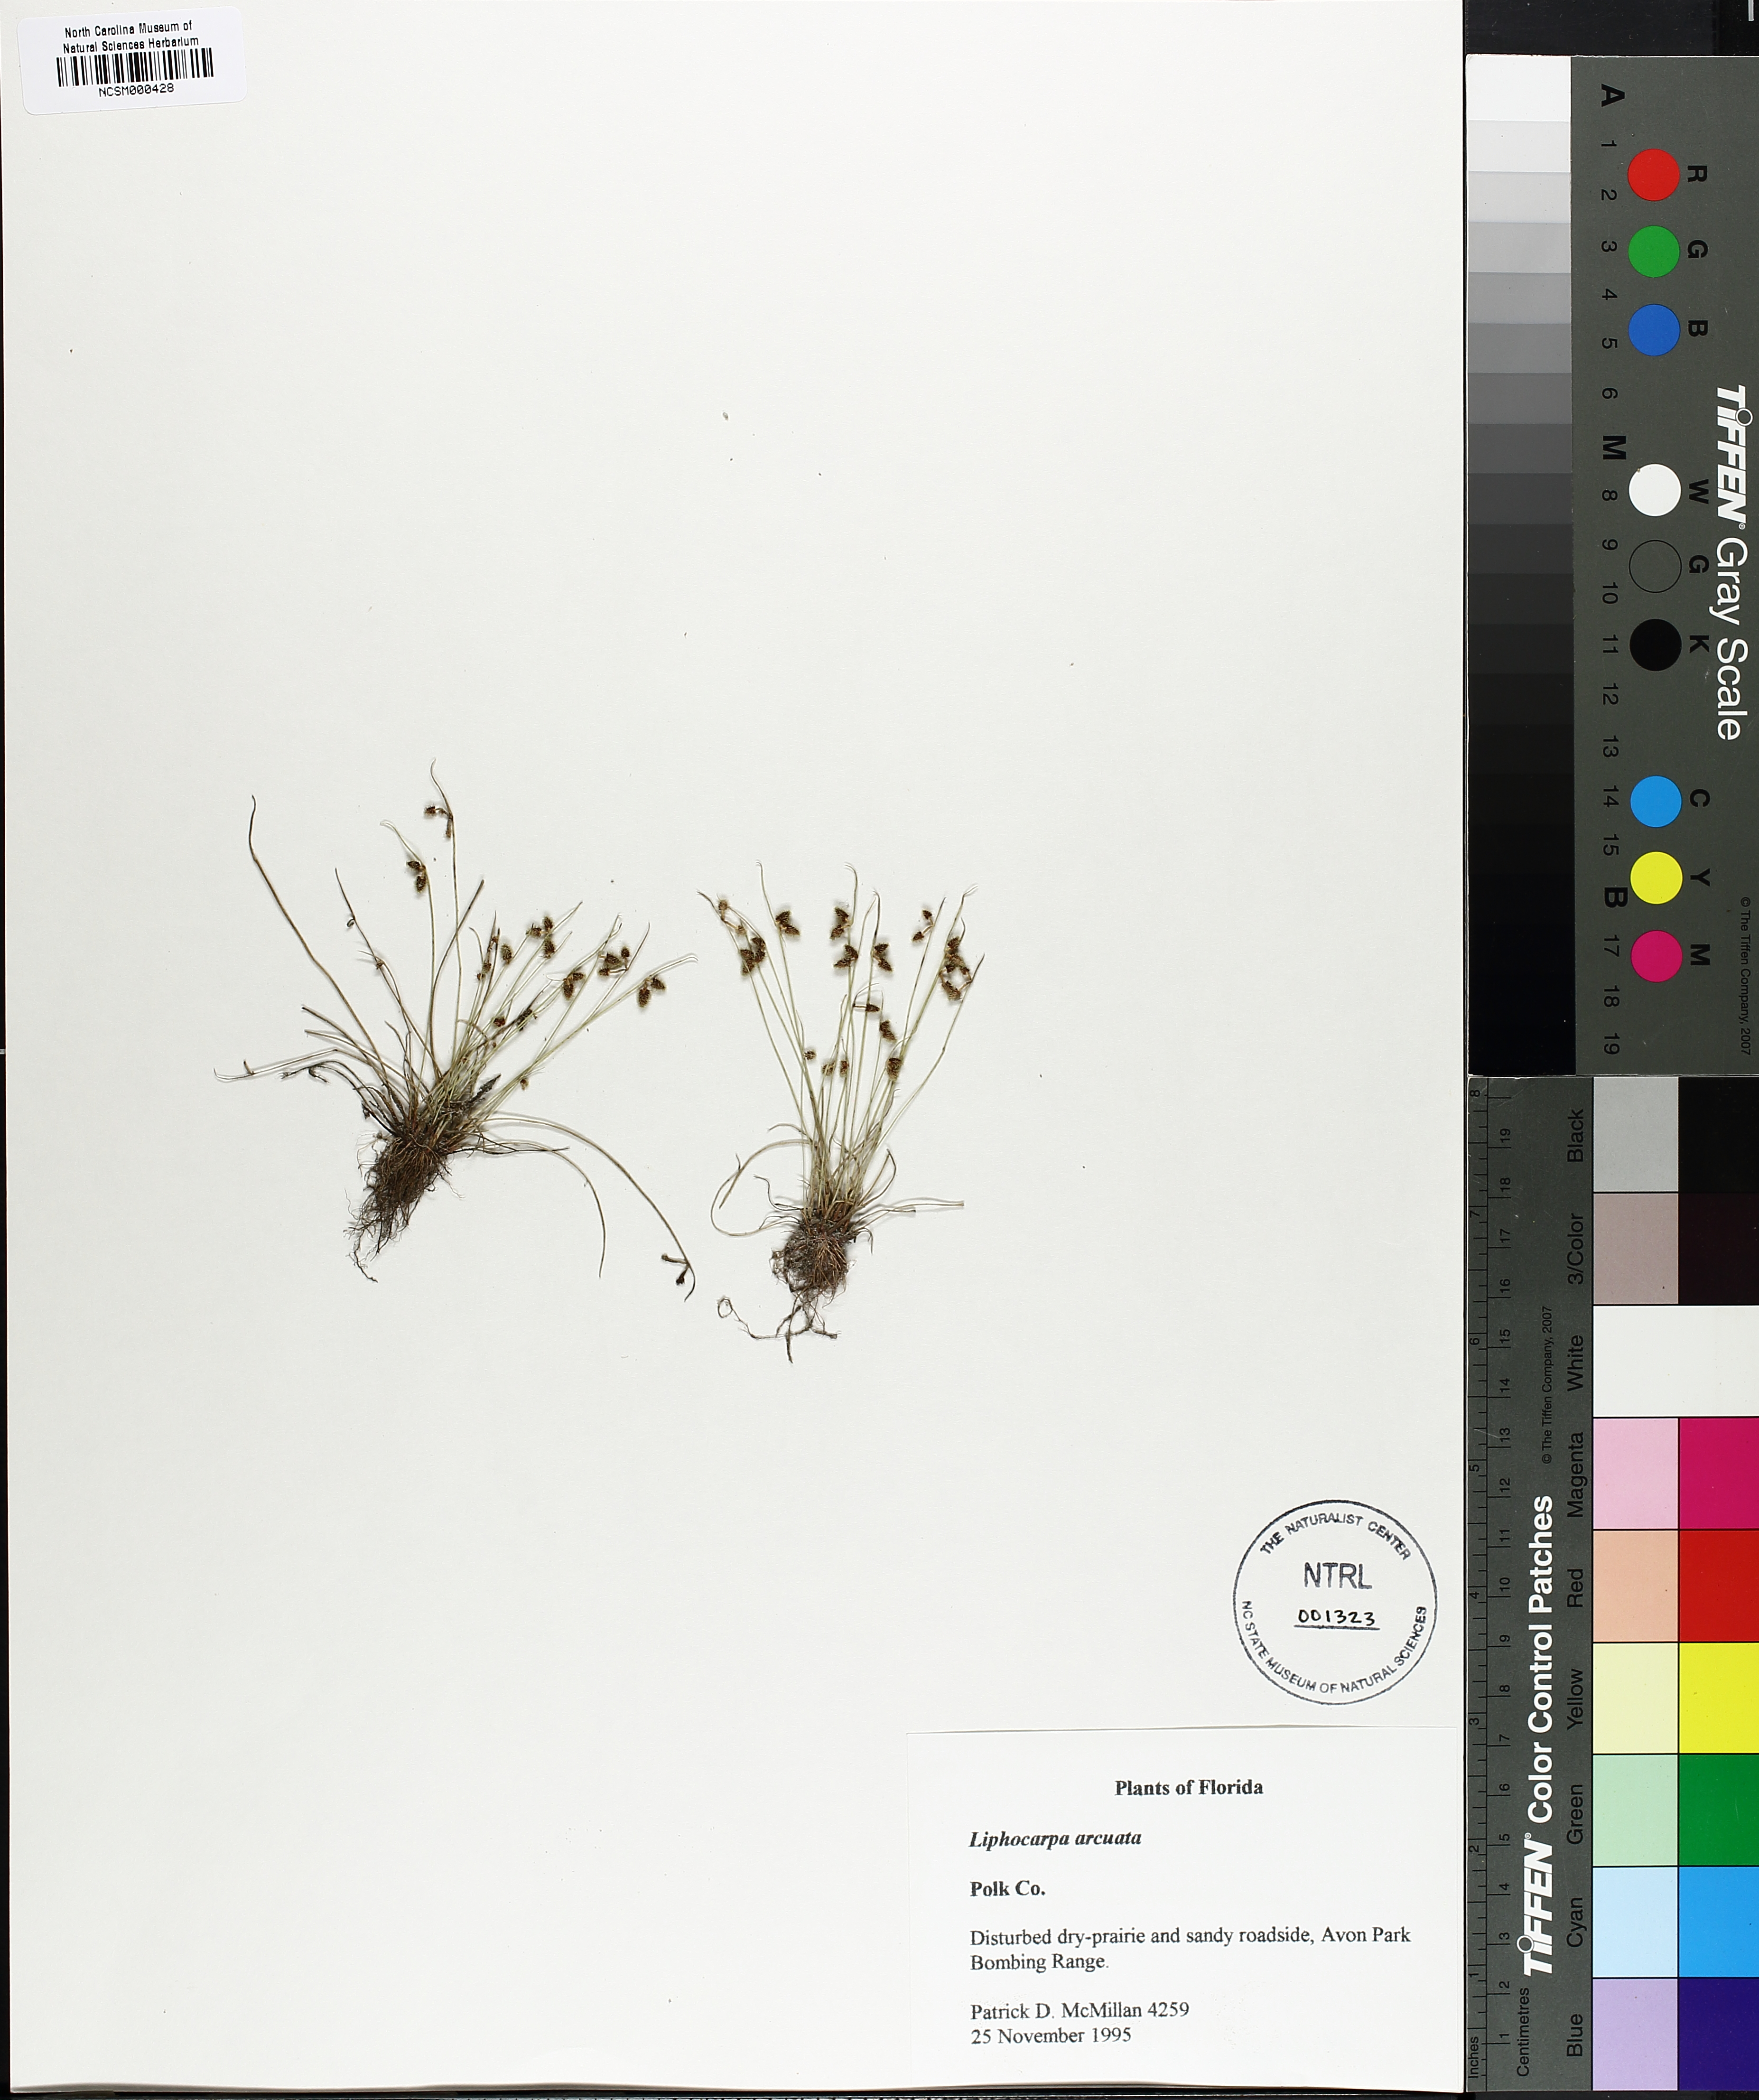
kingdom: Plantae
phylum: Tracheophyta
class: Liliopsida
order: Poales
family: Cyperaceae
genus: Cyperus
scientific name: Cyperus aristulatus
